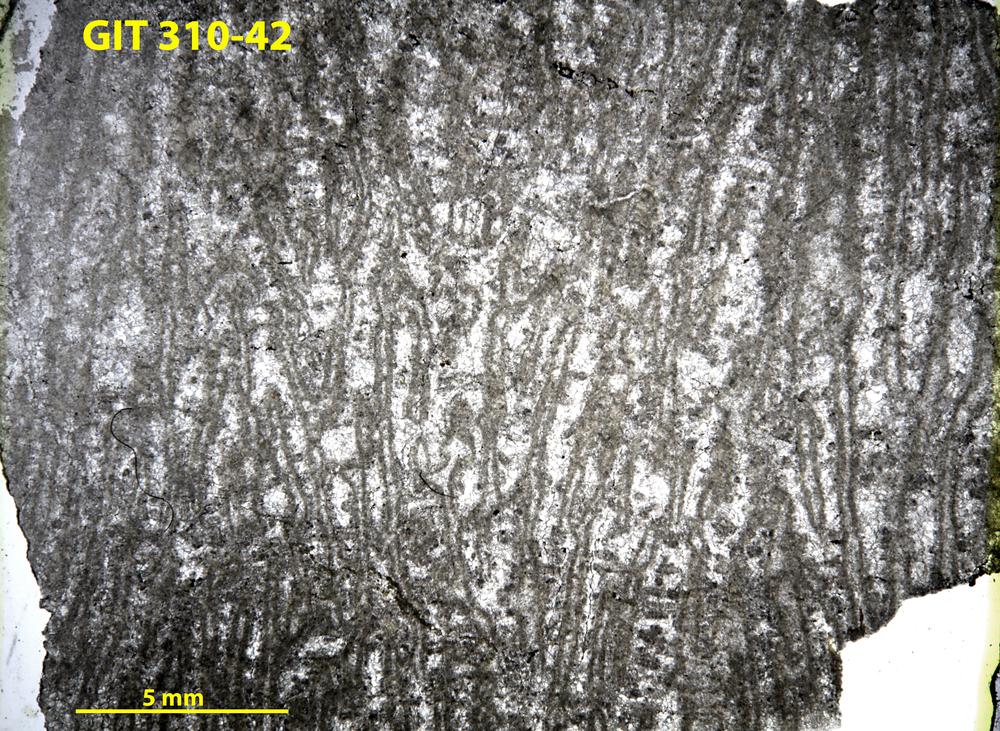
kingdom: Animalia
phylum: Porifera
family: Labechiidae
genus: Stromatocerium
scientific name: Stromatocerium
